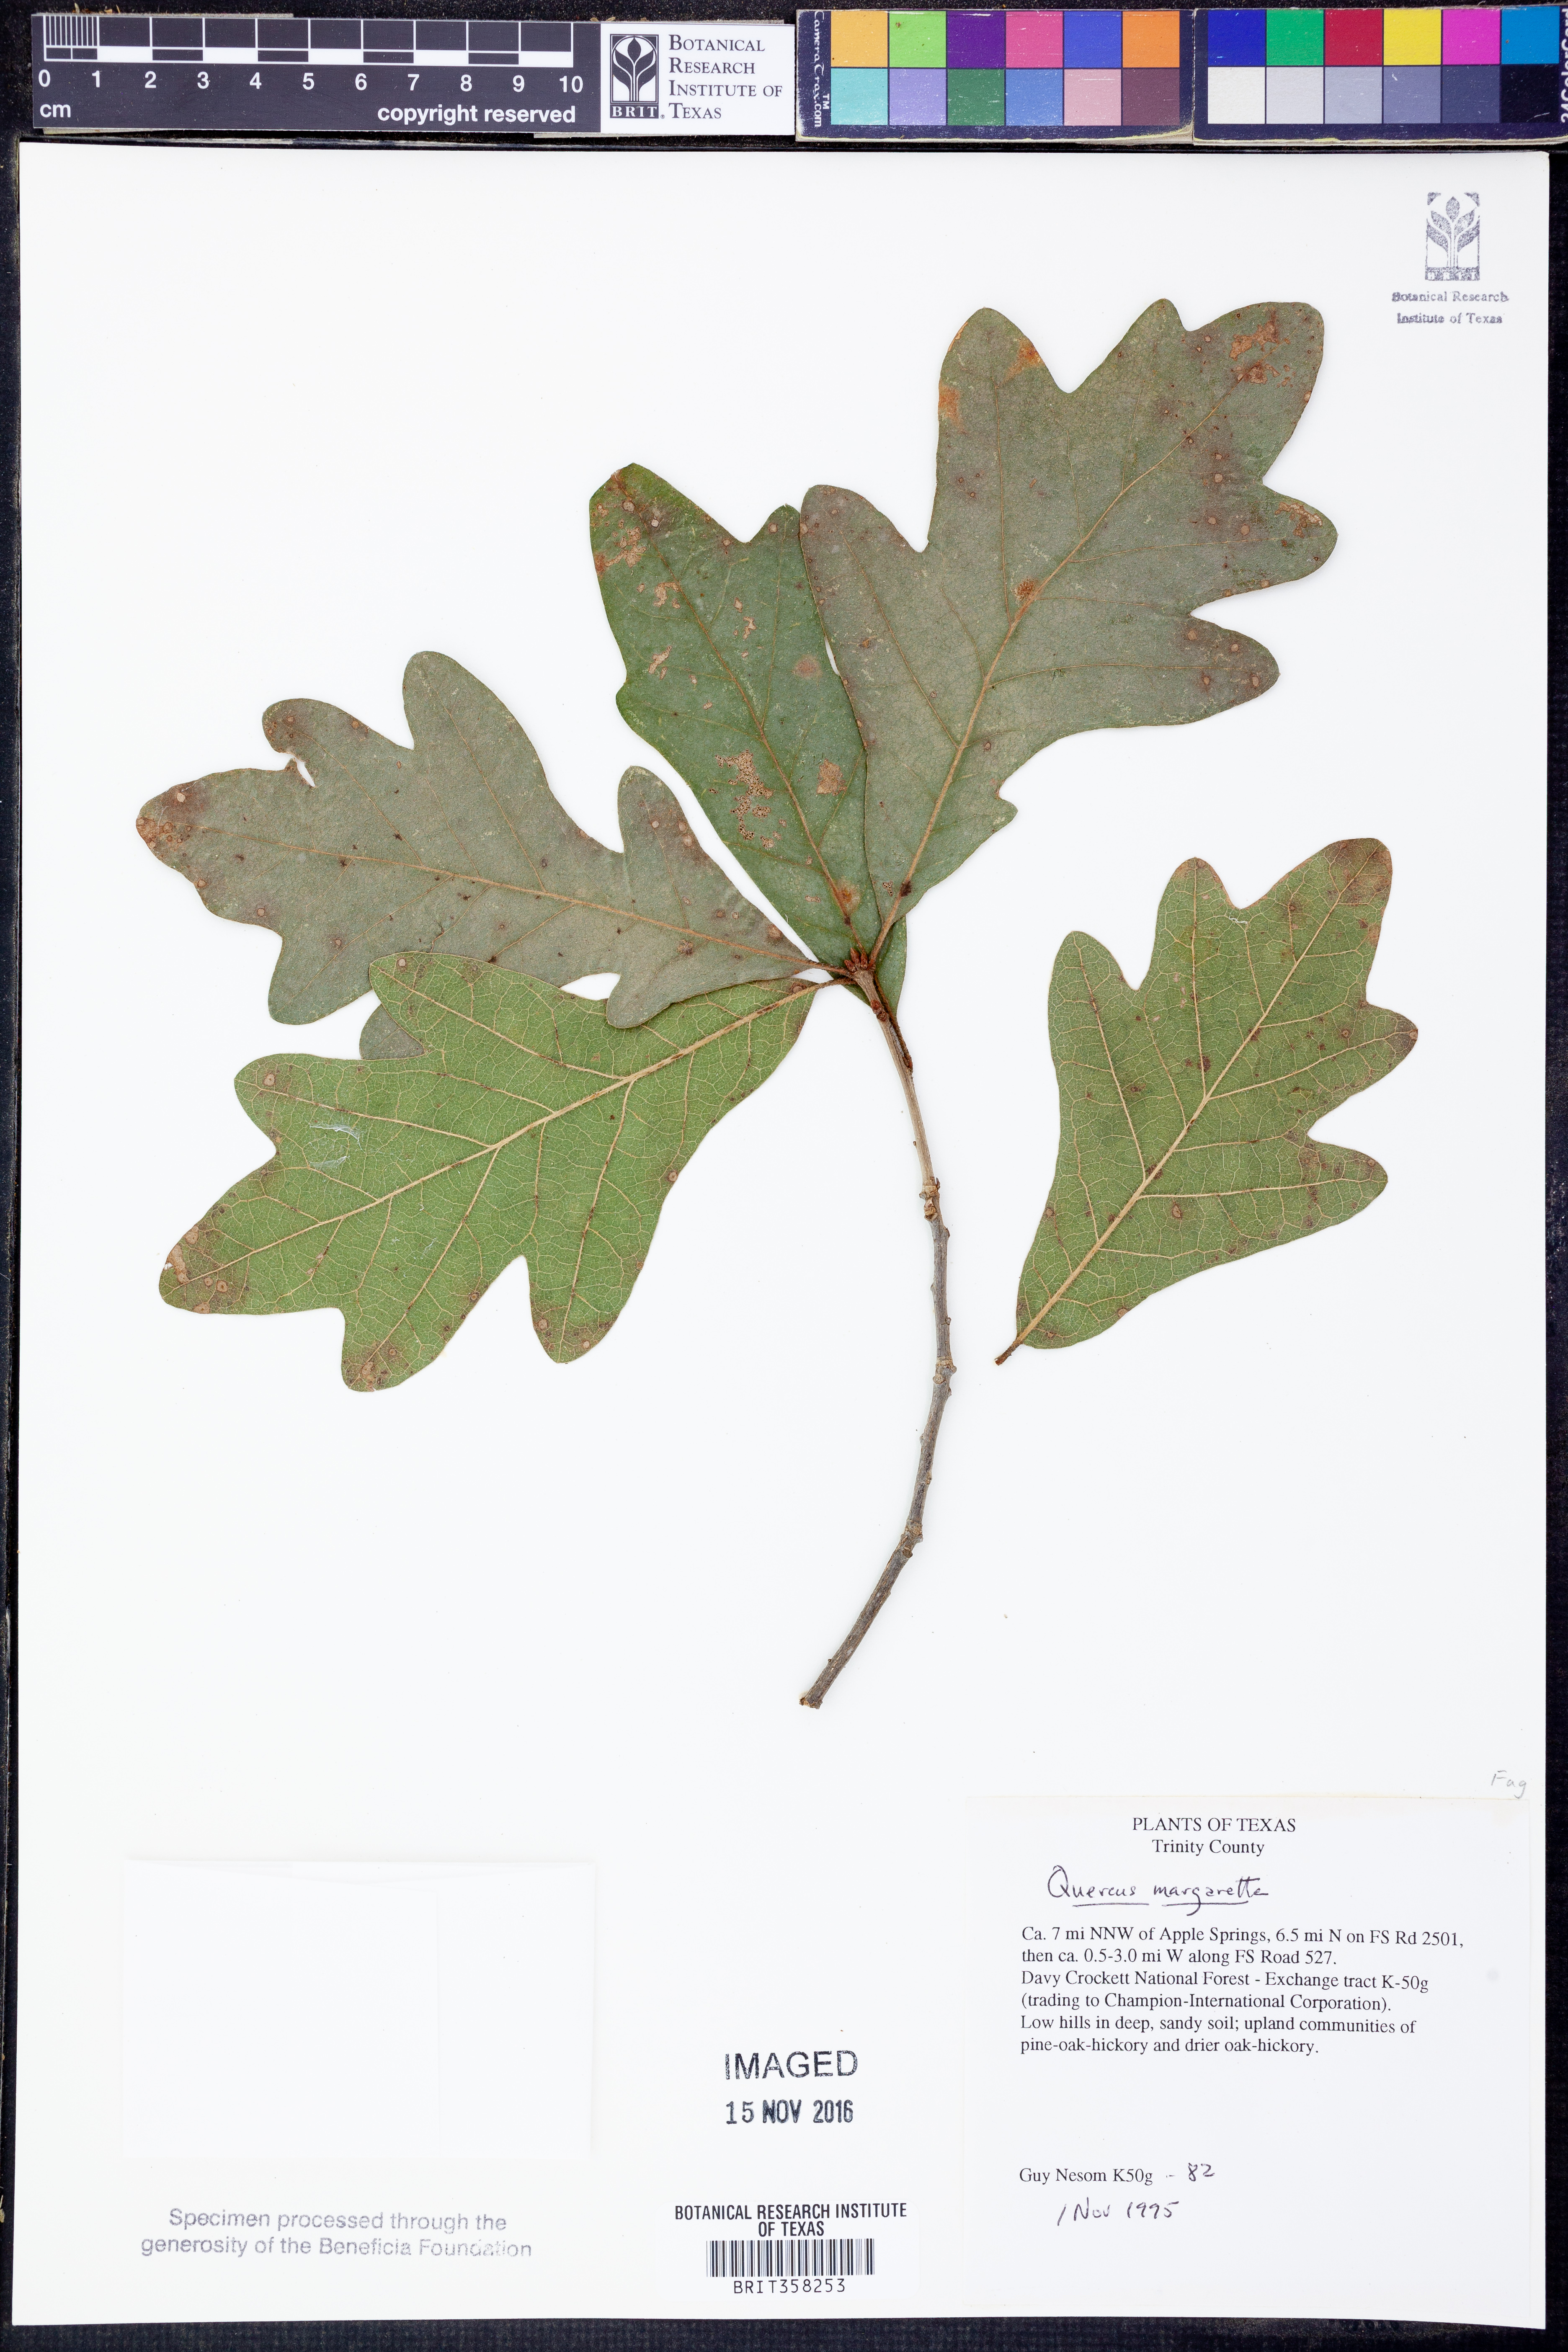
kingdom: Plantae
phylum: Tracheophyta
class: Magnoliopsida
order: Fagales
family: Fagaceae
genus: Quercus
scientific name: Quercus margaretta
